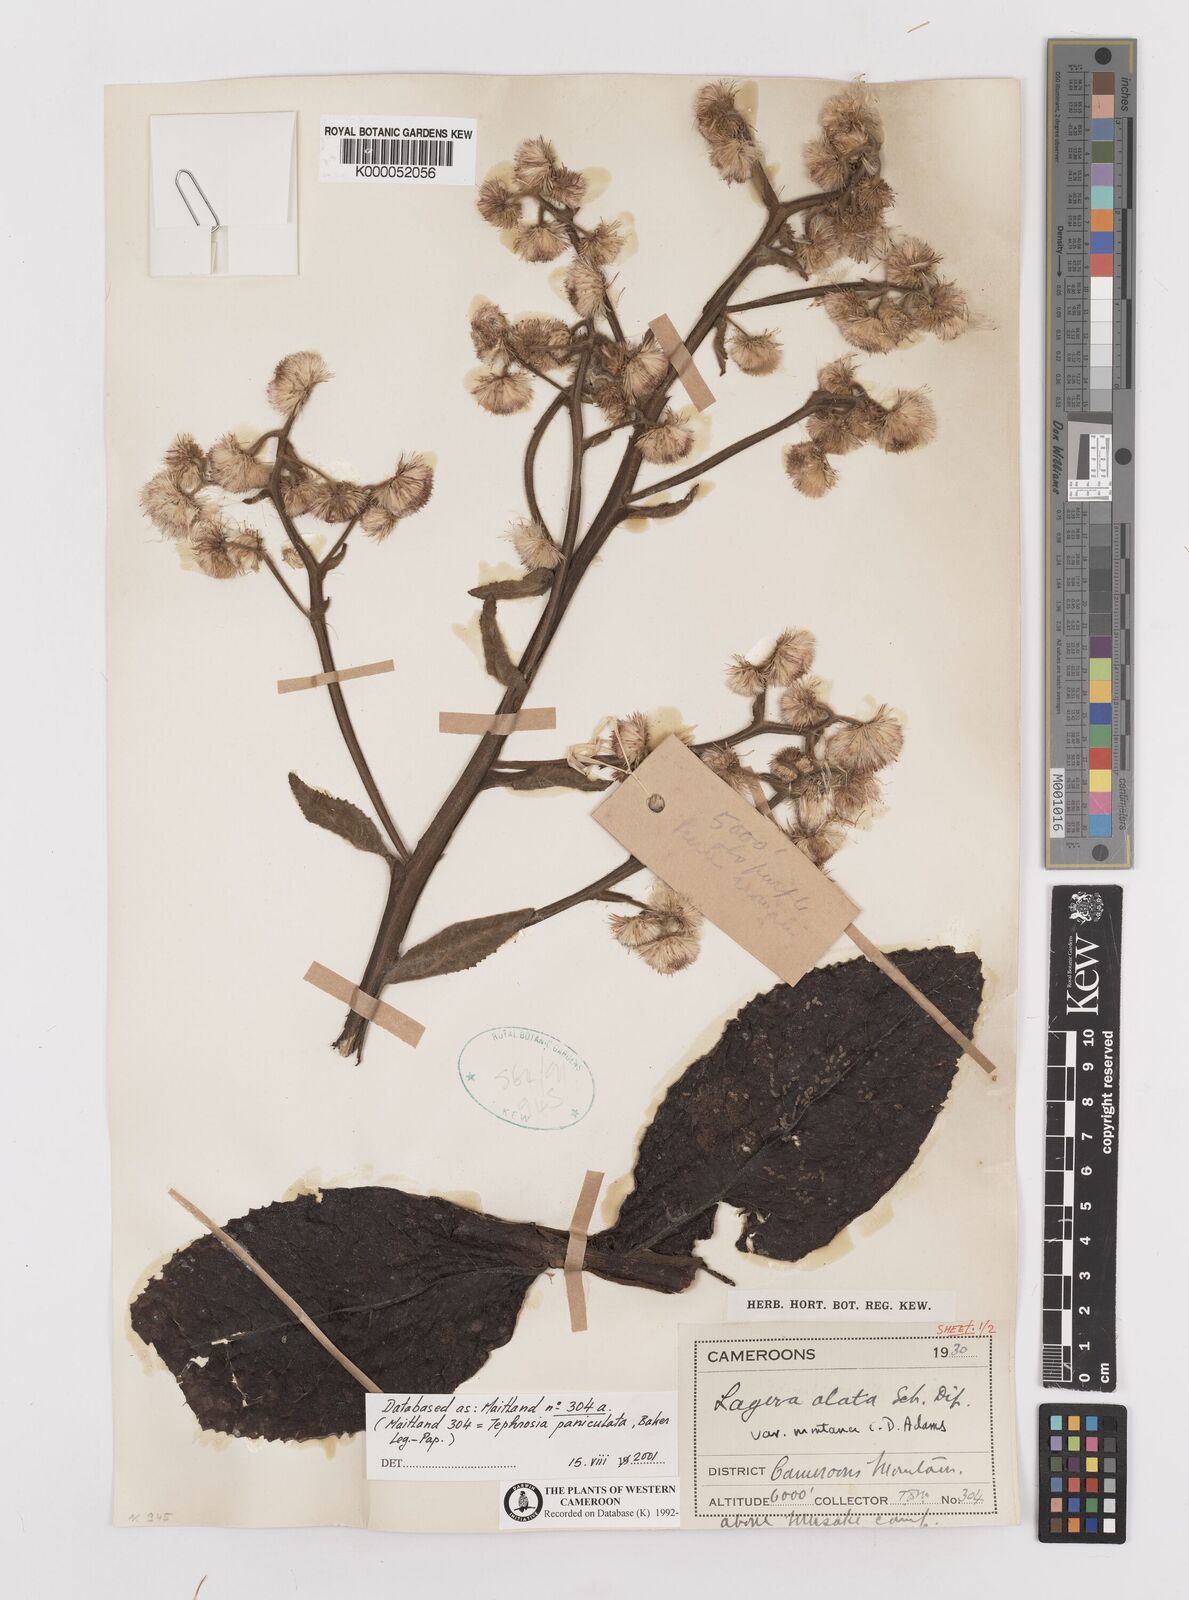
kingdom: Plantae
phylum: Tracheophyta
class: Magnoliopsida
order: Asterales
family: Asteraceae
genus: Laggera
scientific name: Laggera crispata
